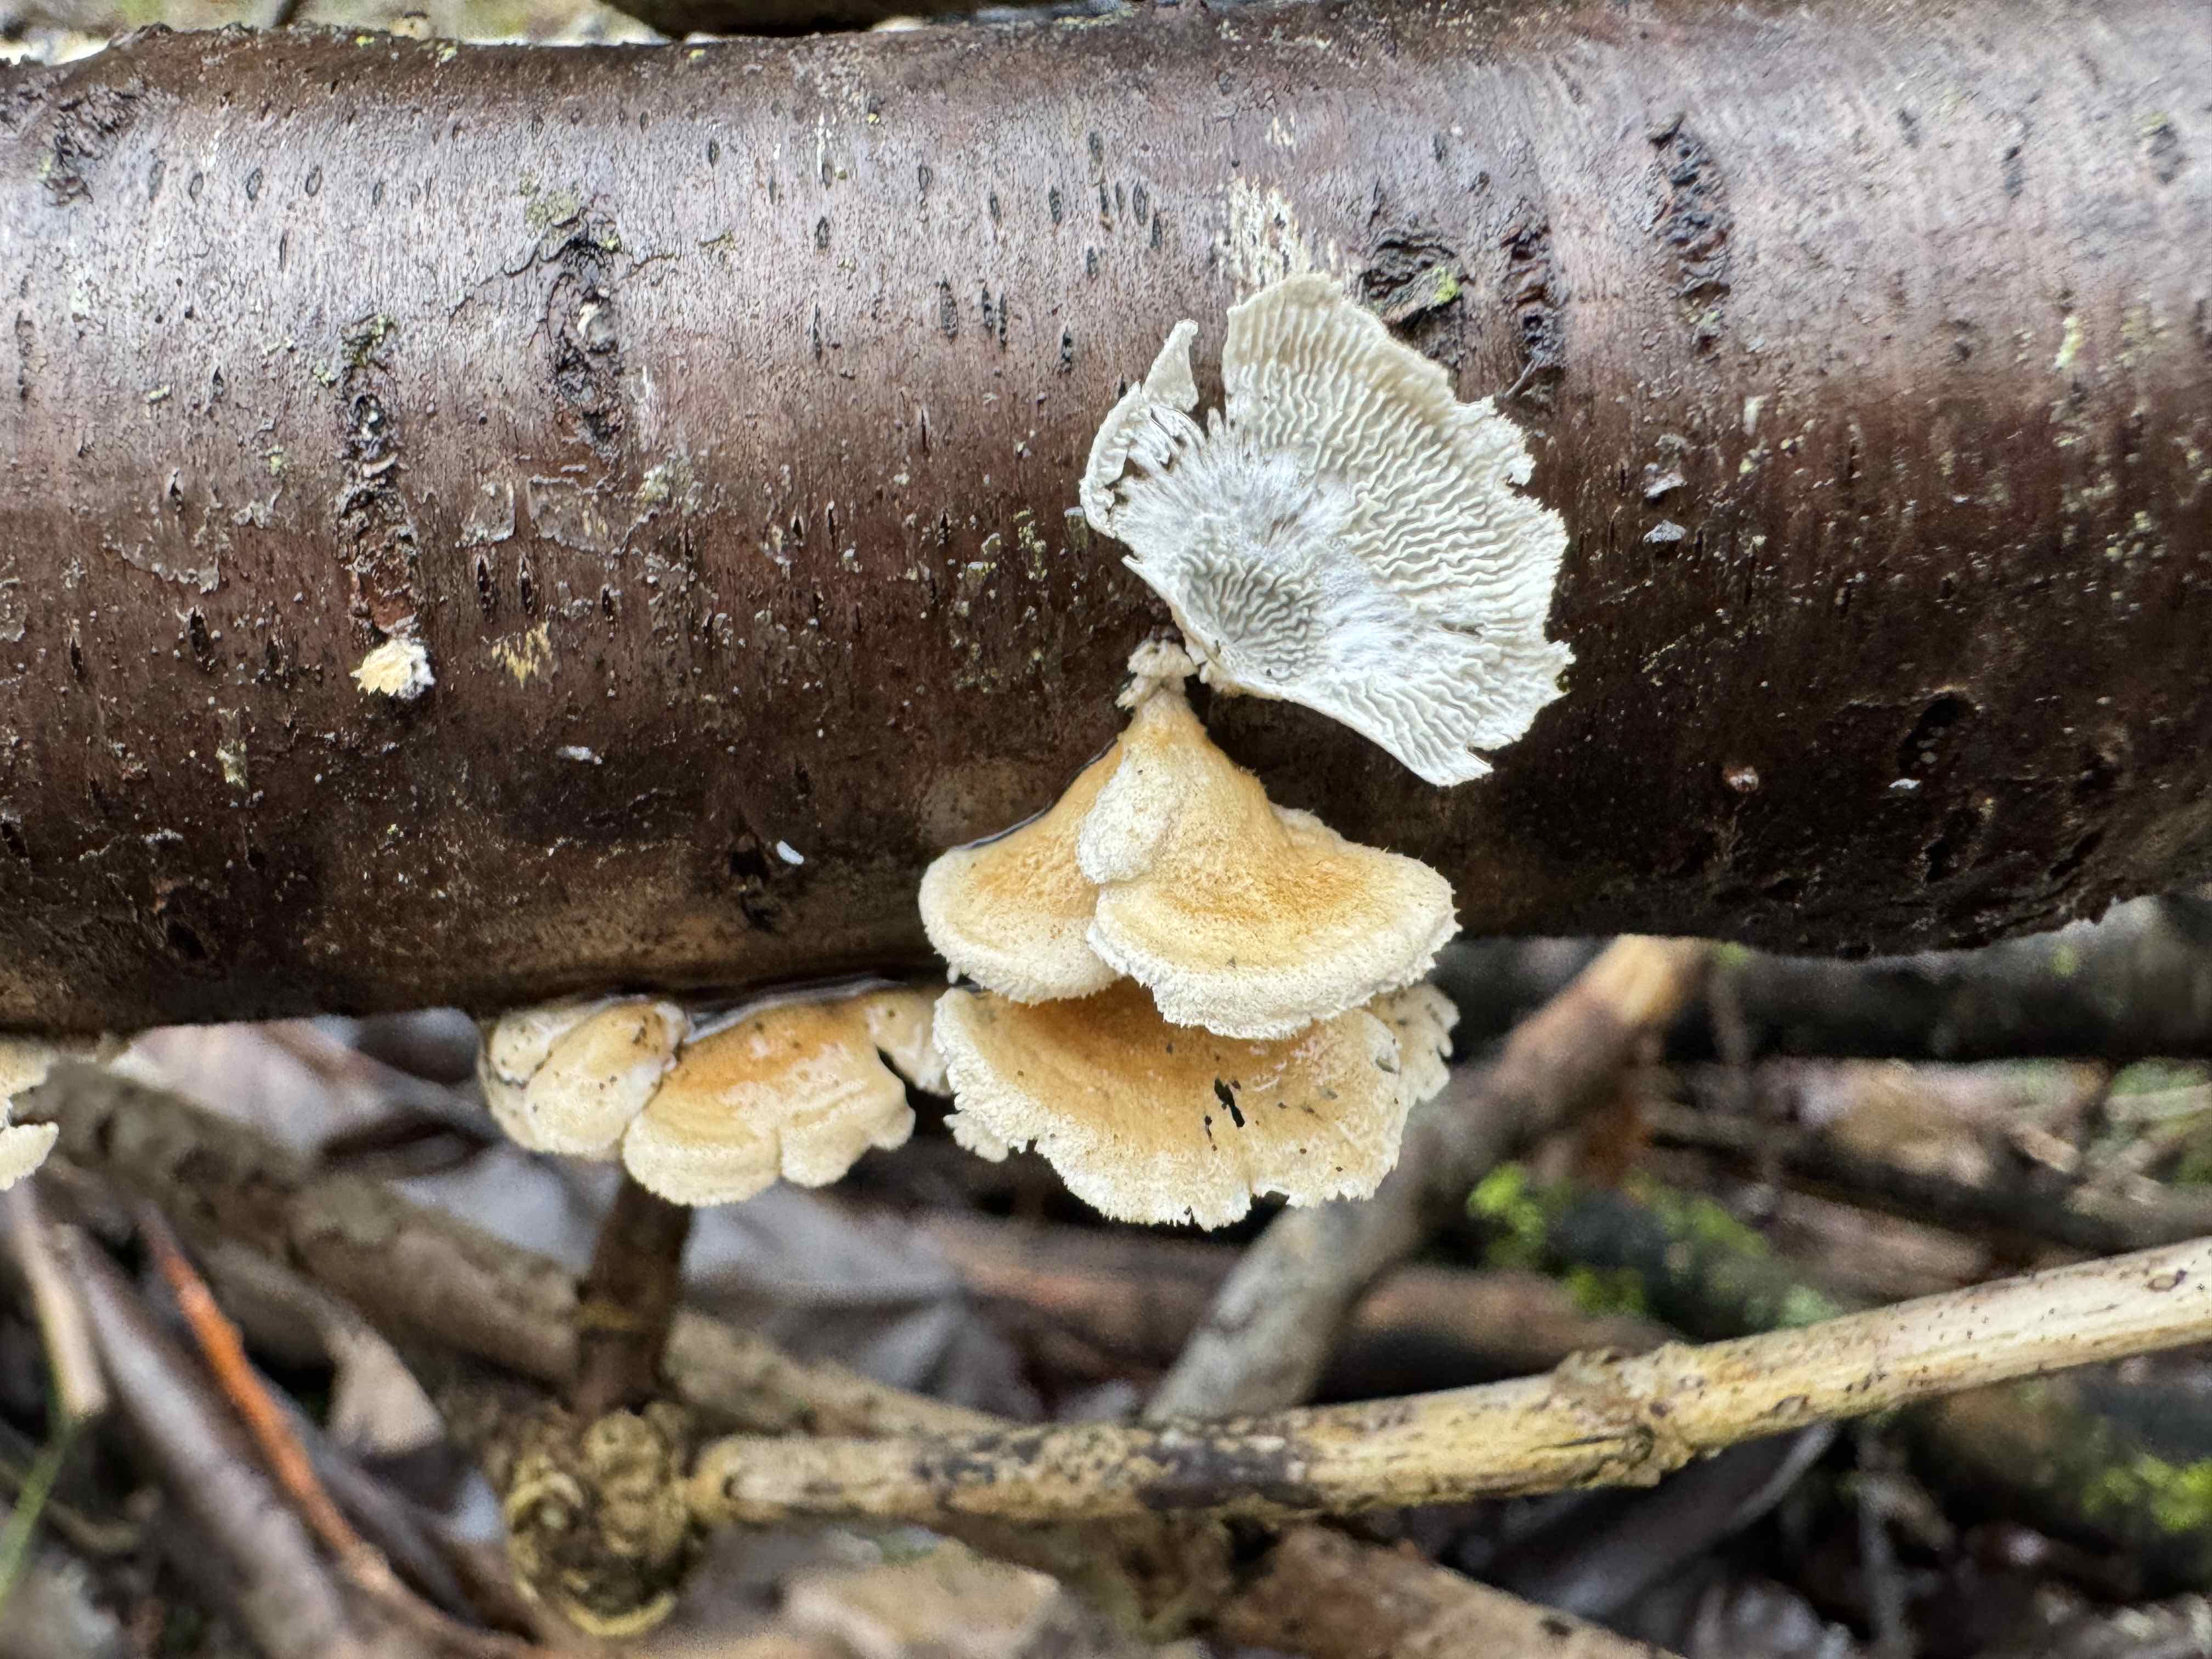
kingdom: Fungi
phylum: Basidiomycota
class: Agaricomycetes
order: Amylocorticiales
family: Amylocorticiaceae
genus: Plicaturopsis
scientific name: Plicaturopsis crispa
